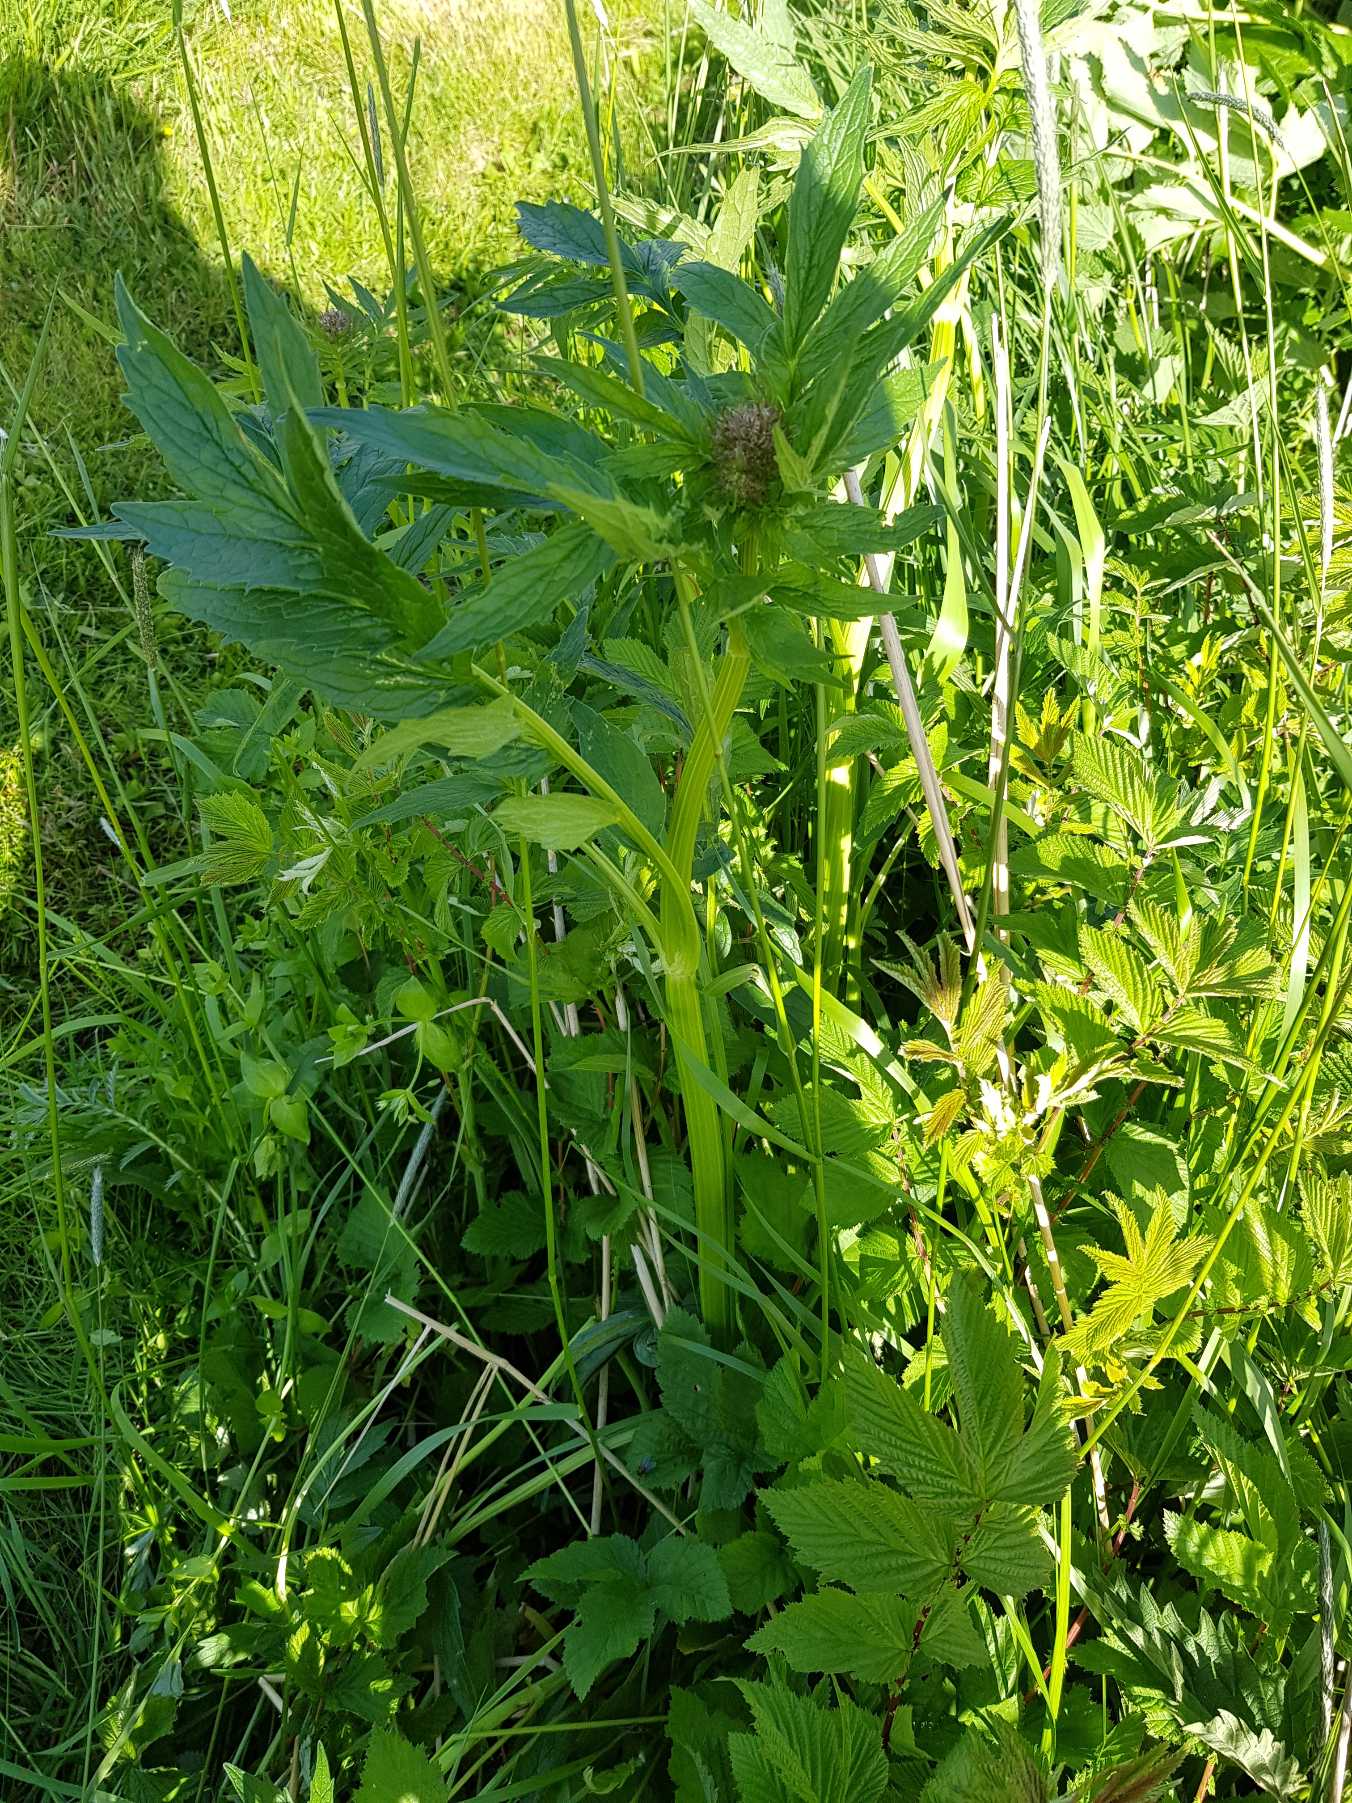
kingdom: Plantae
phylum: Tracheophyta
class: Magnoliopsida
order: Dipsacales
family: Caprifoliaceae
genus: Valeriana
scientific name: Valeriana sambucifolia
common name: Hyldebladet baldrian
